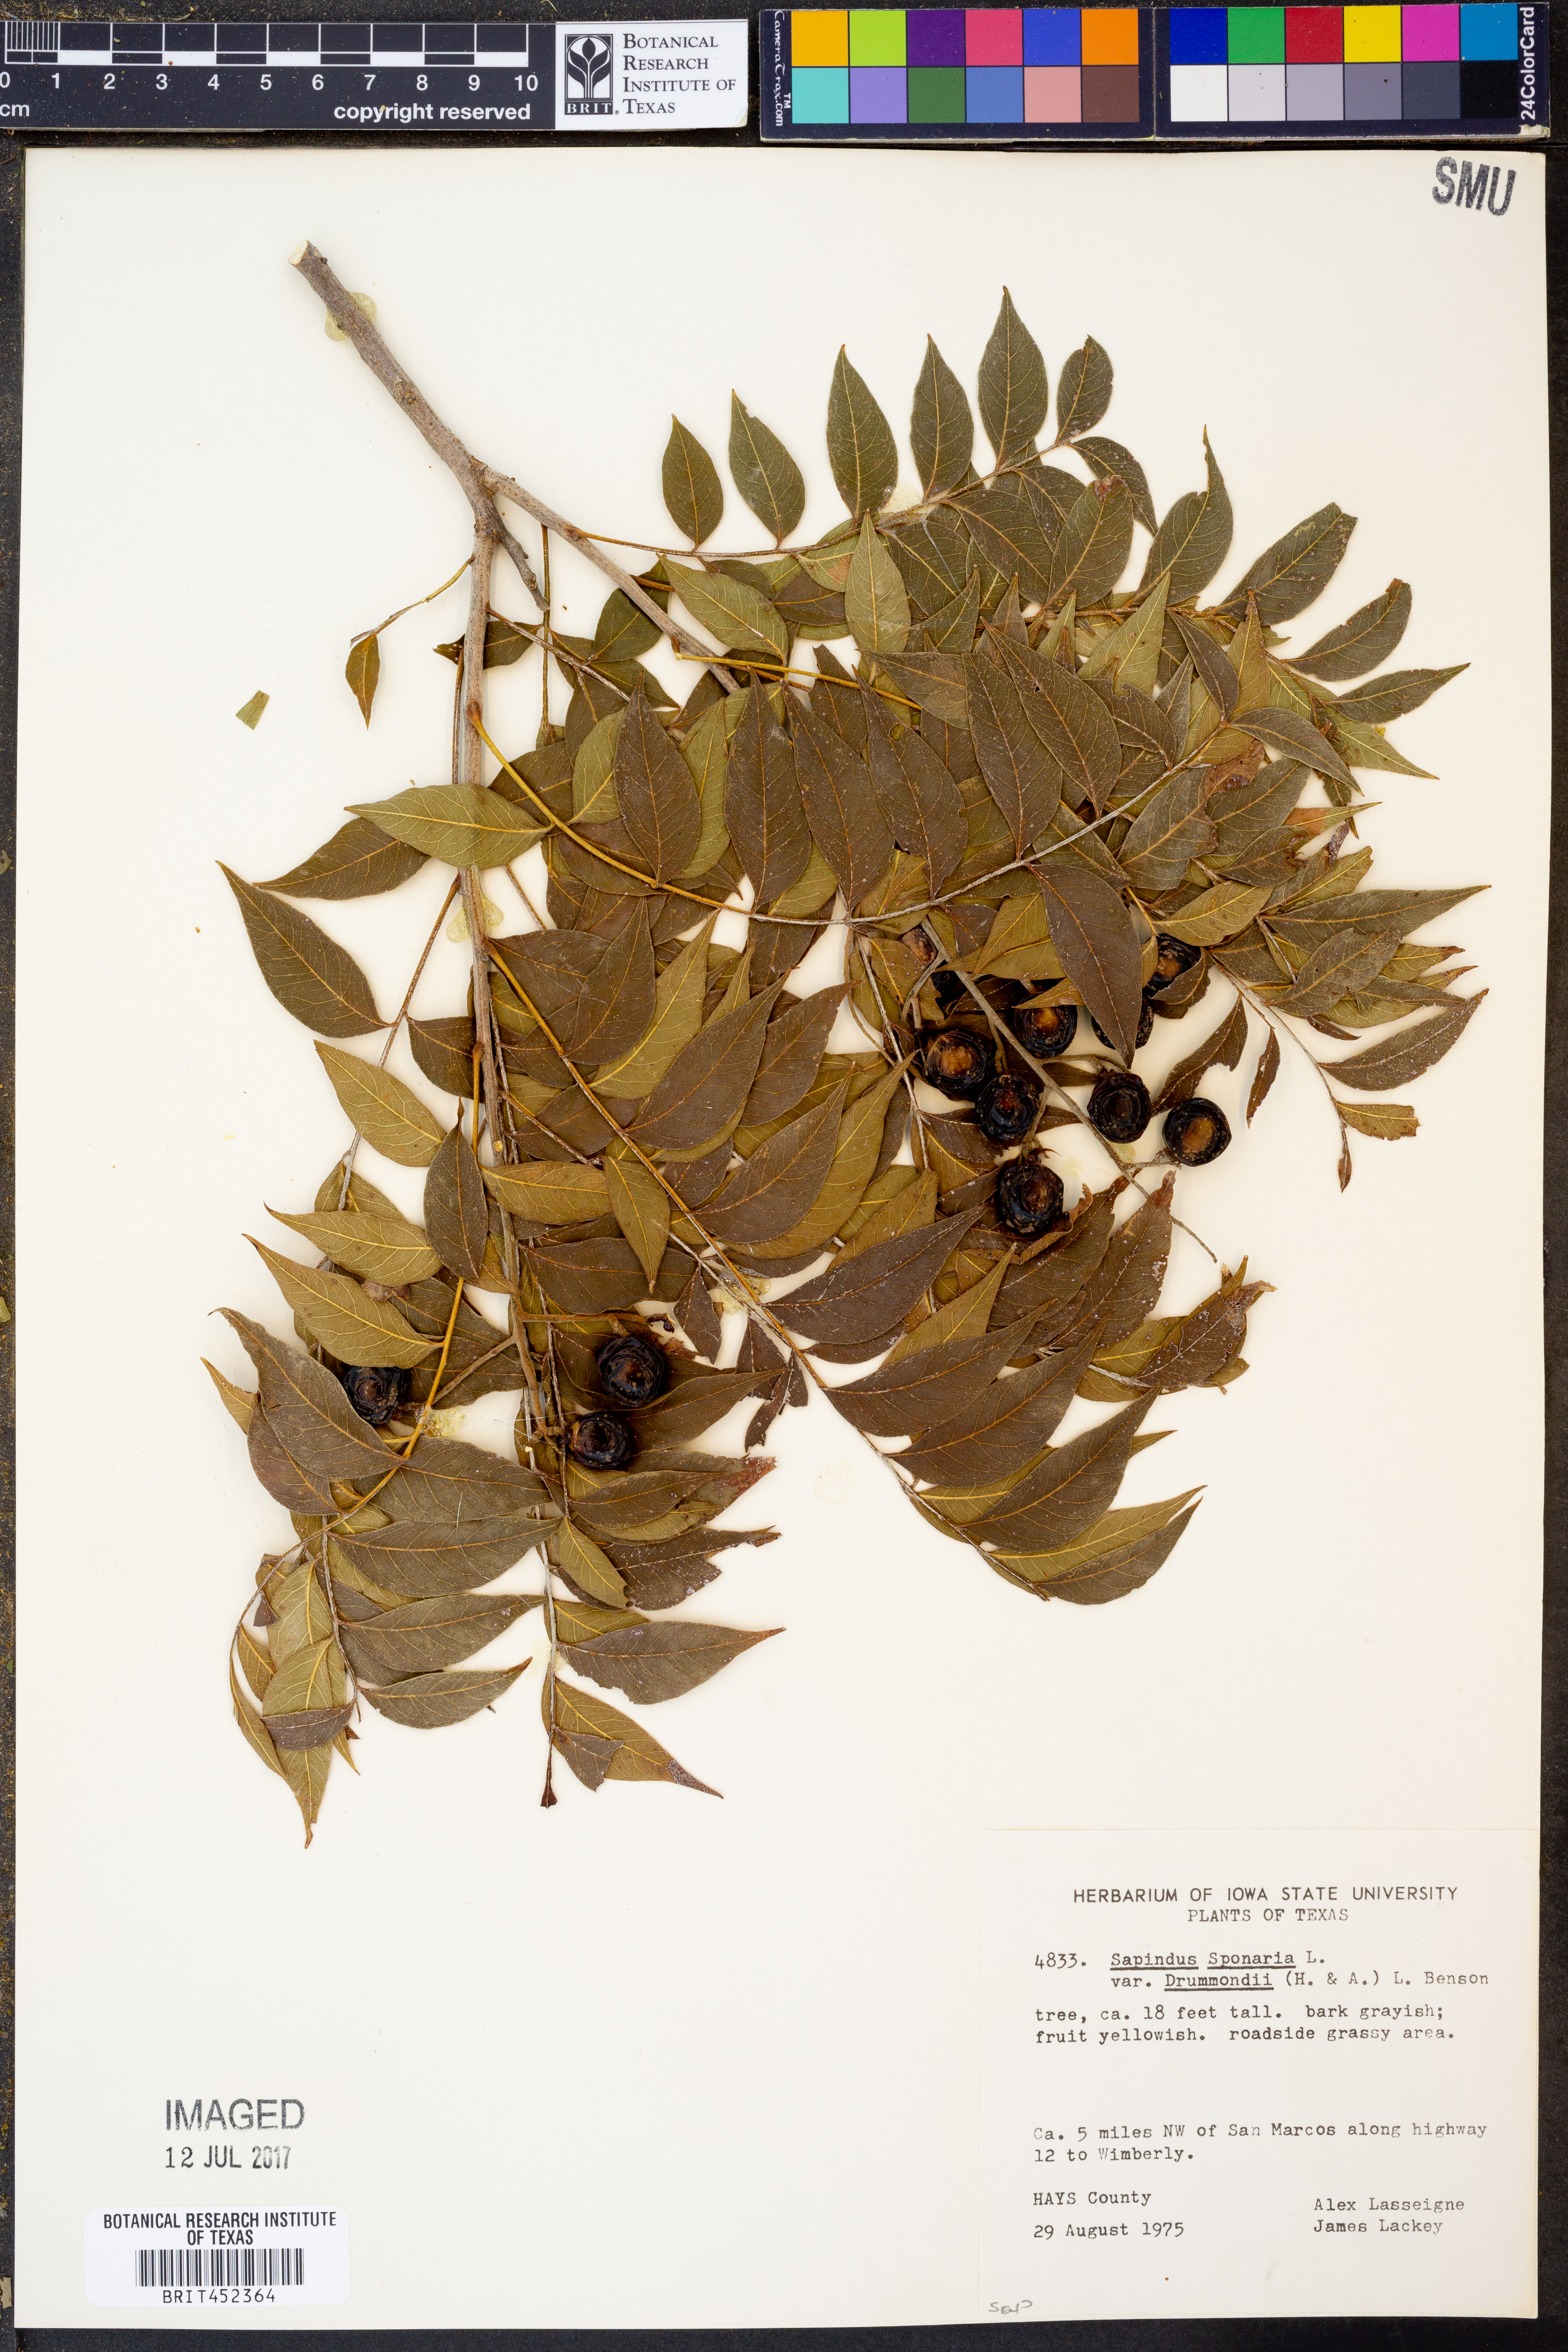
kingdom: Plantae
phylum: Tracheophyta
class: Magnoliopsida
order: Sapindales
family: Sapindaceae
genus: Sapindus
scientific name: Sapindus drummondii
